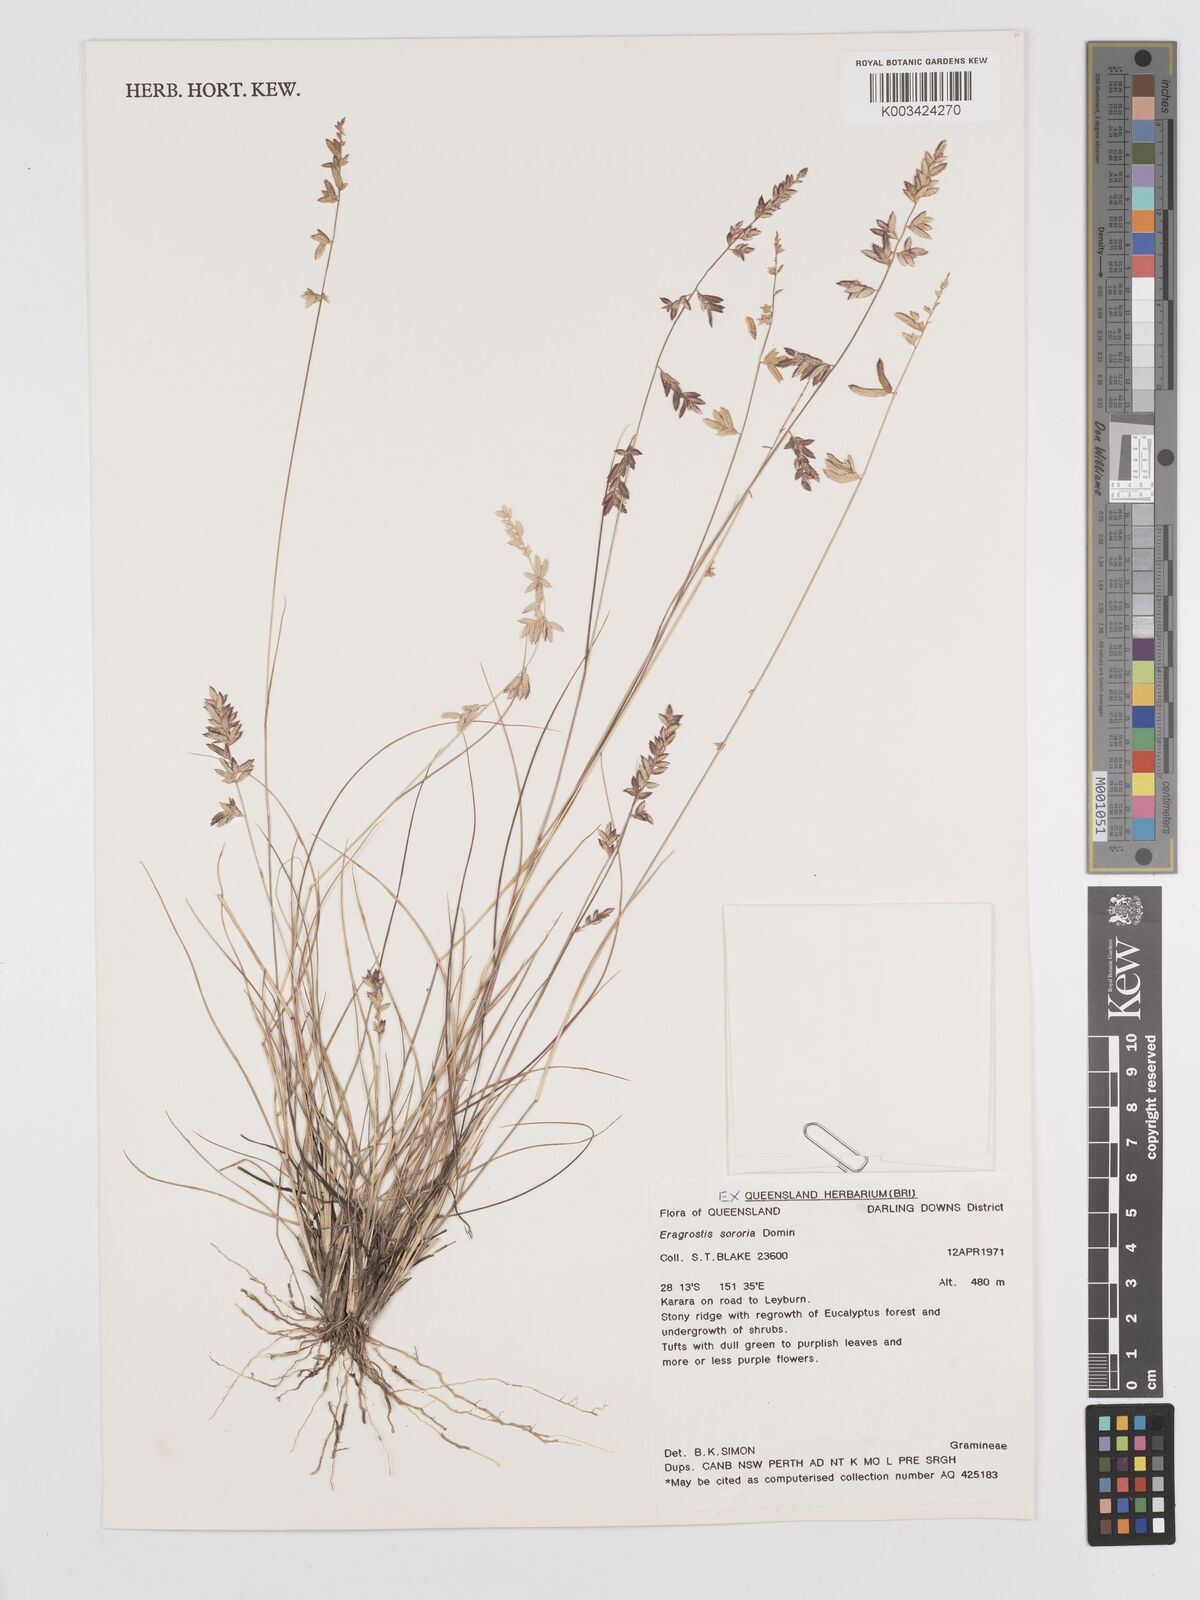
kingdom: Plantae
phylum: Tracheophyta
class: Liliopsida
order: Poales
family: Poaceae
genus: Eragrostis
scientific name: Eragrostis sororia
